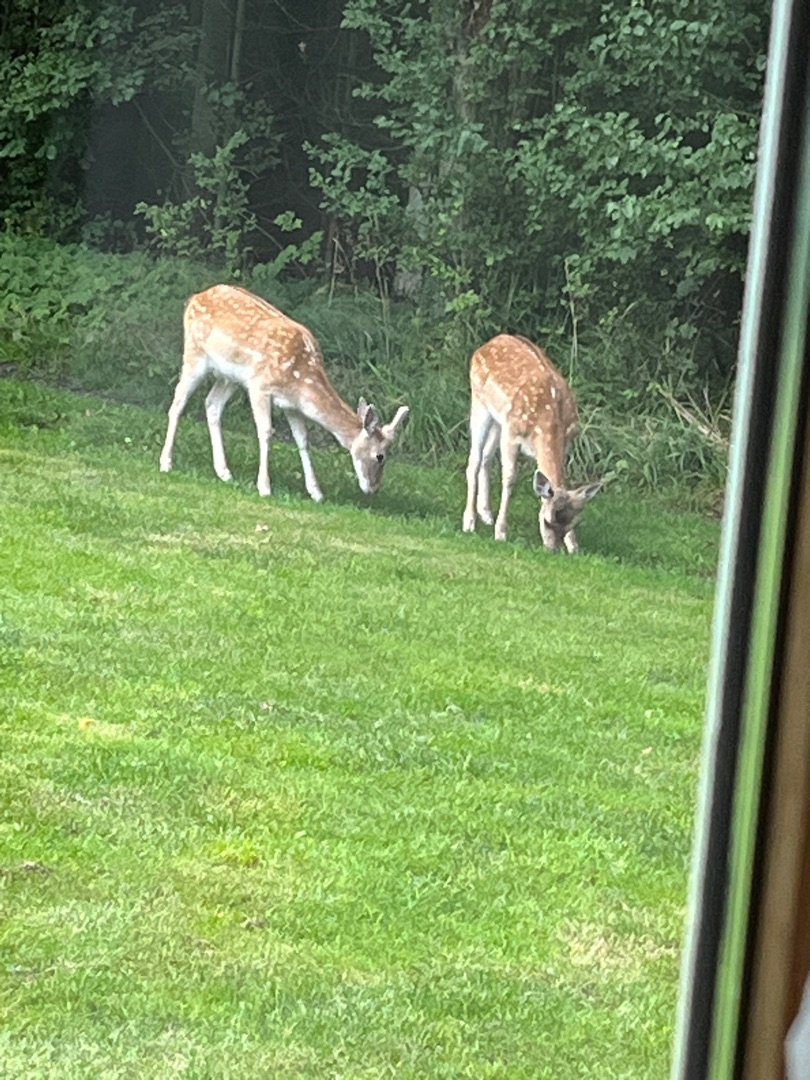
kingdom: Animalia
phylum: Chordata
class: Mammalia
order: Artiodactyla
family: Cervidae
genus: Dama
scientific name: Dama dama
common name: Dådyr
